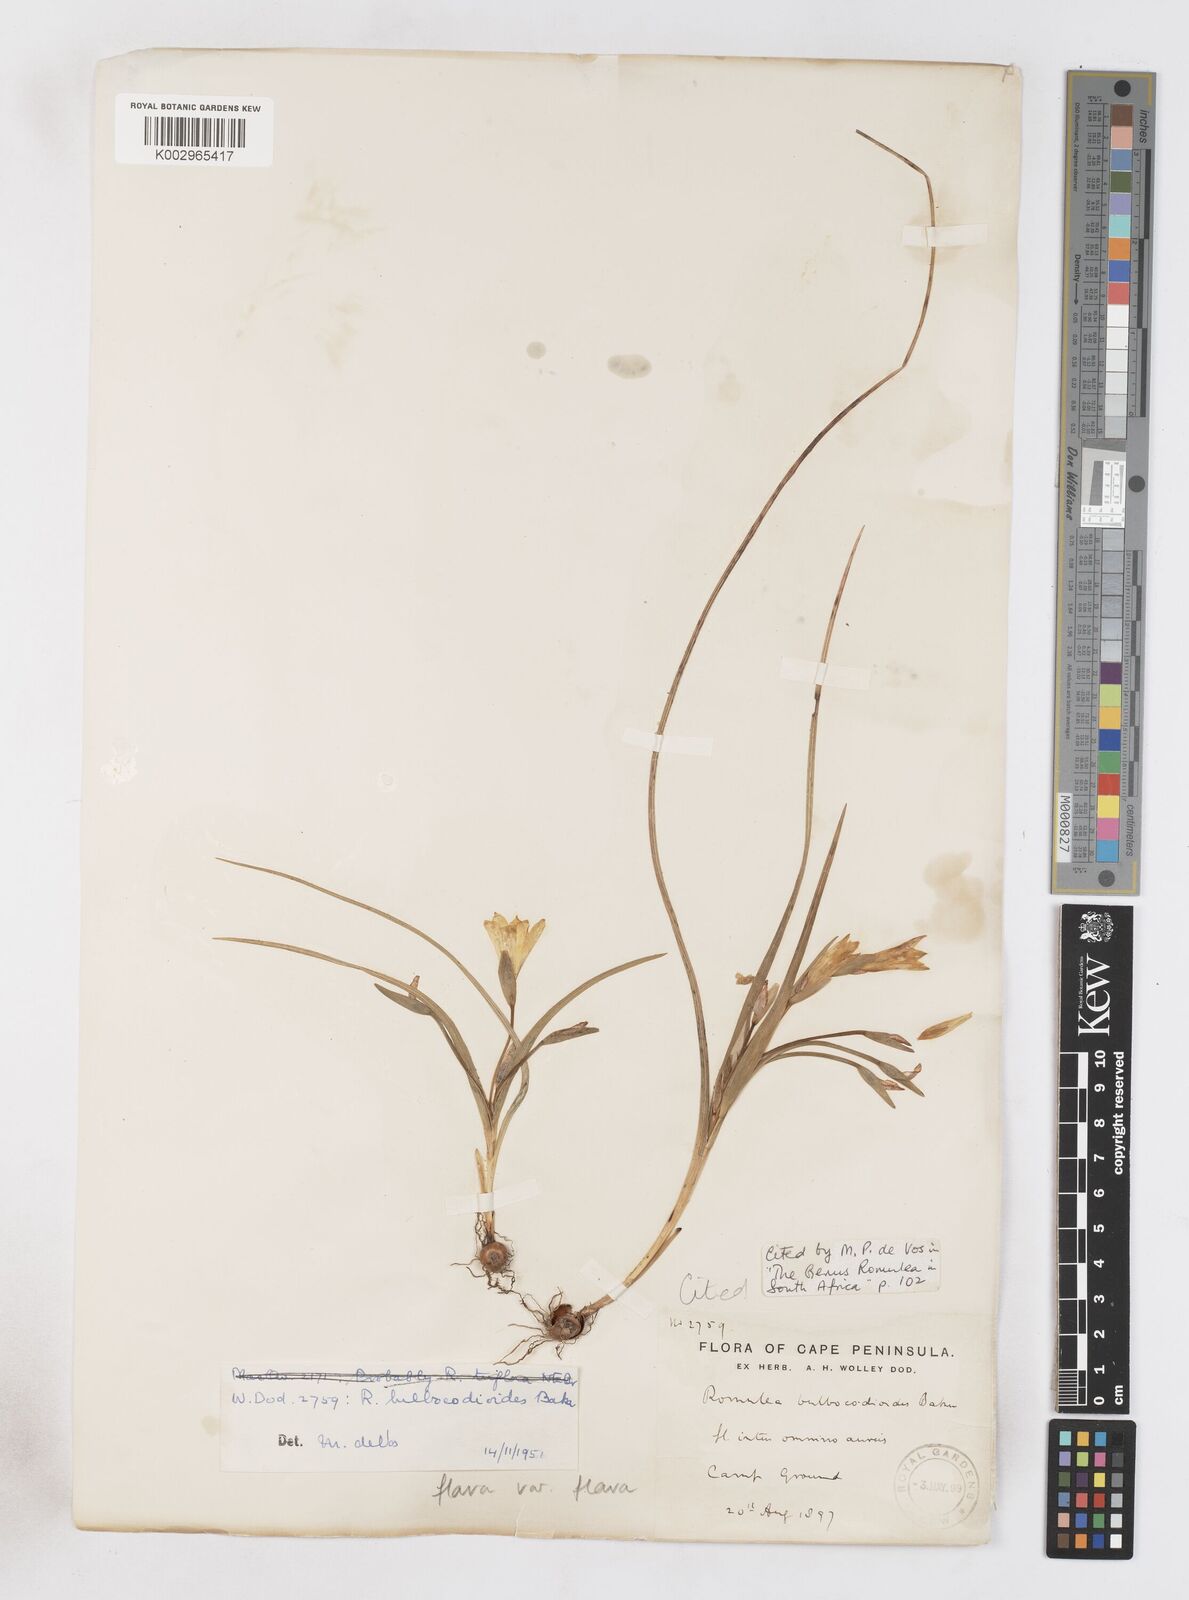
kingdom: Plantae
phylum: Tracheophyta
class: Liliopsida
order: Asparagales
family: Iridaceae
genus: Romulea
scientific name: Romulea flava
